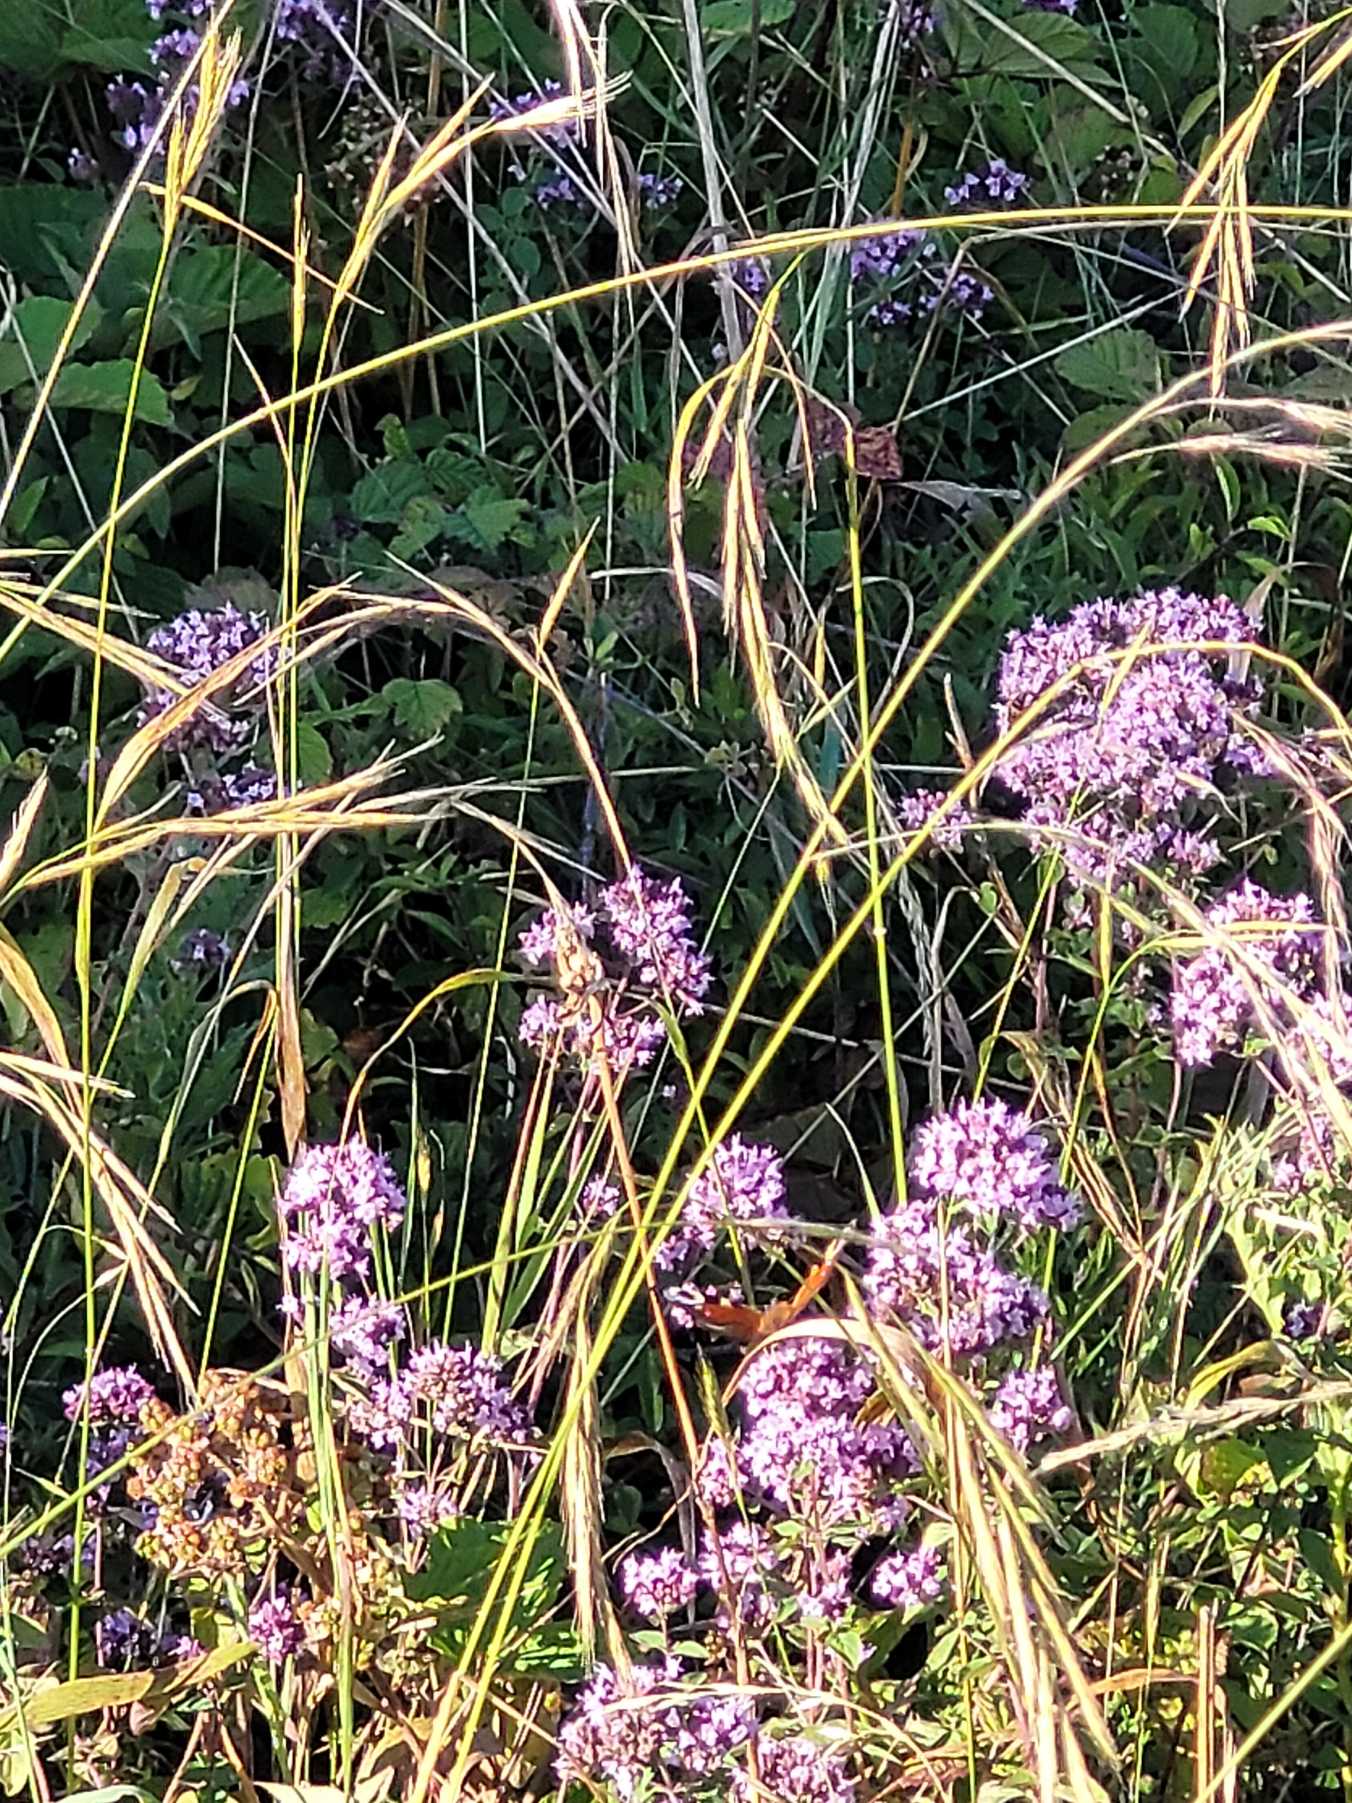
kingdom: Animalia
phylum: Arthropoda
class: Insecta
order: Lepidoptera
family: Nymphalidae
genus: Aglais
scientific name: Aglais io
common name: Dagpåfugleøje
